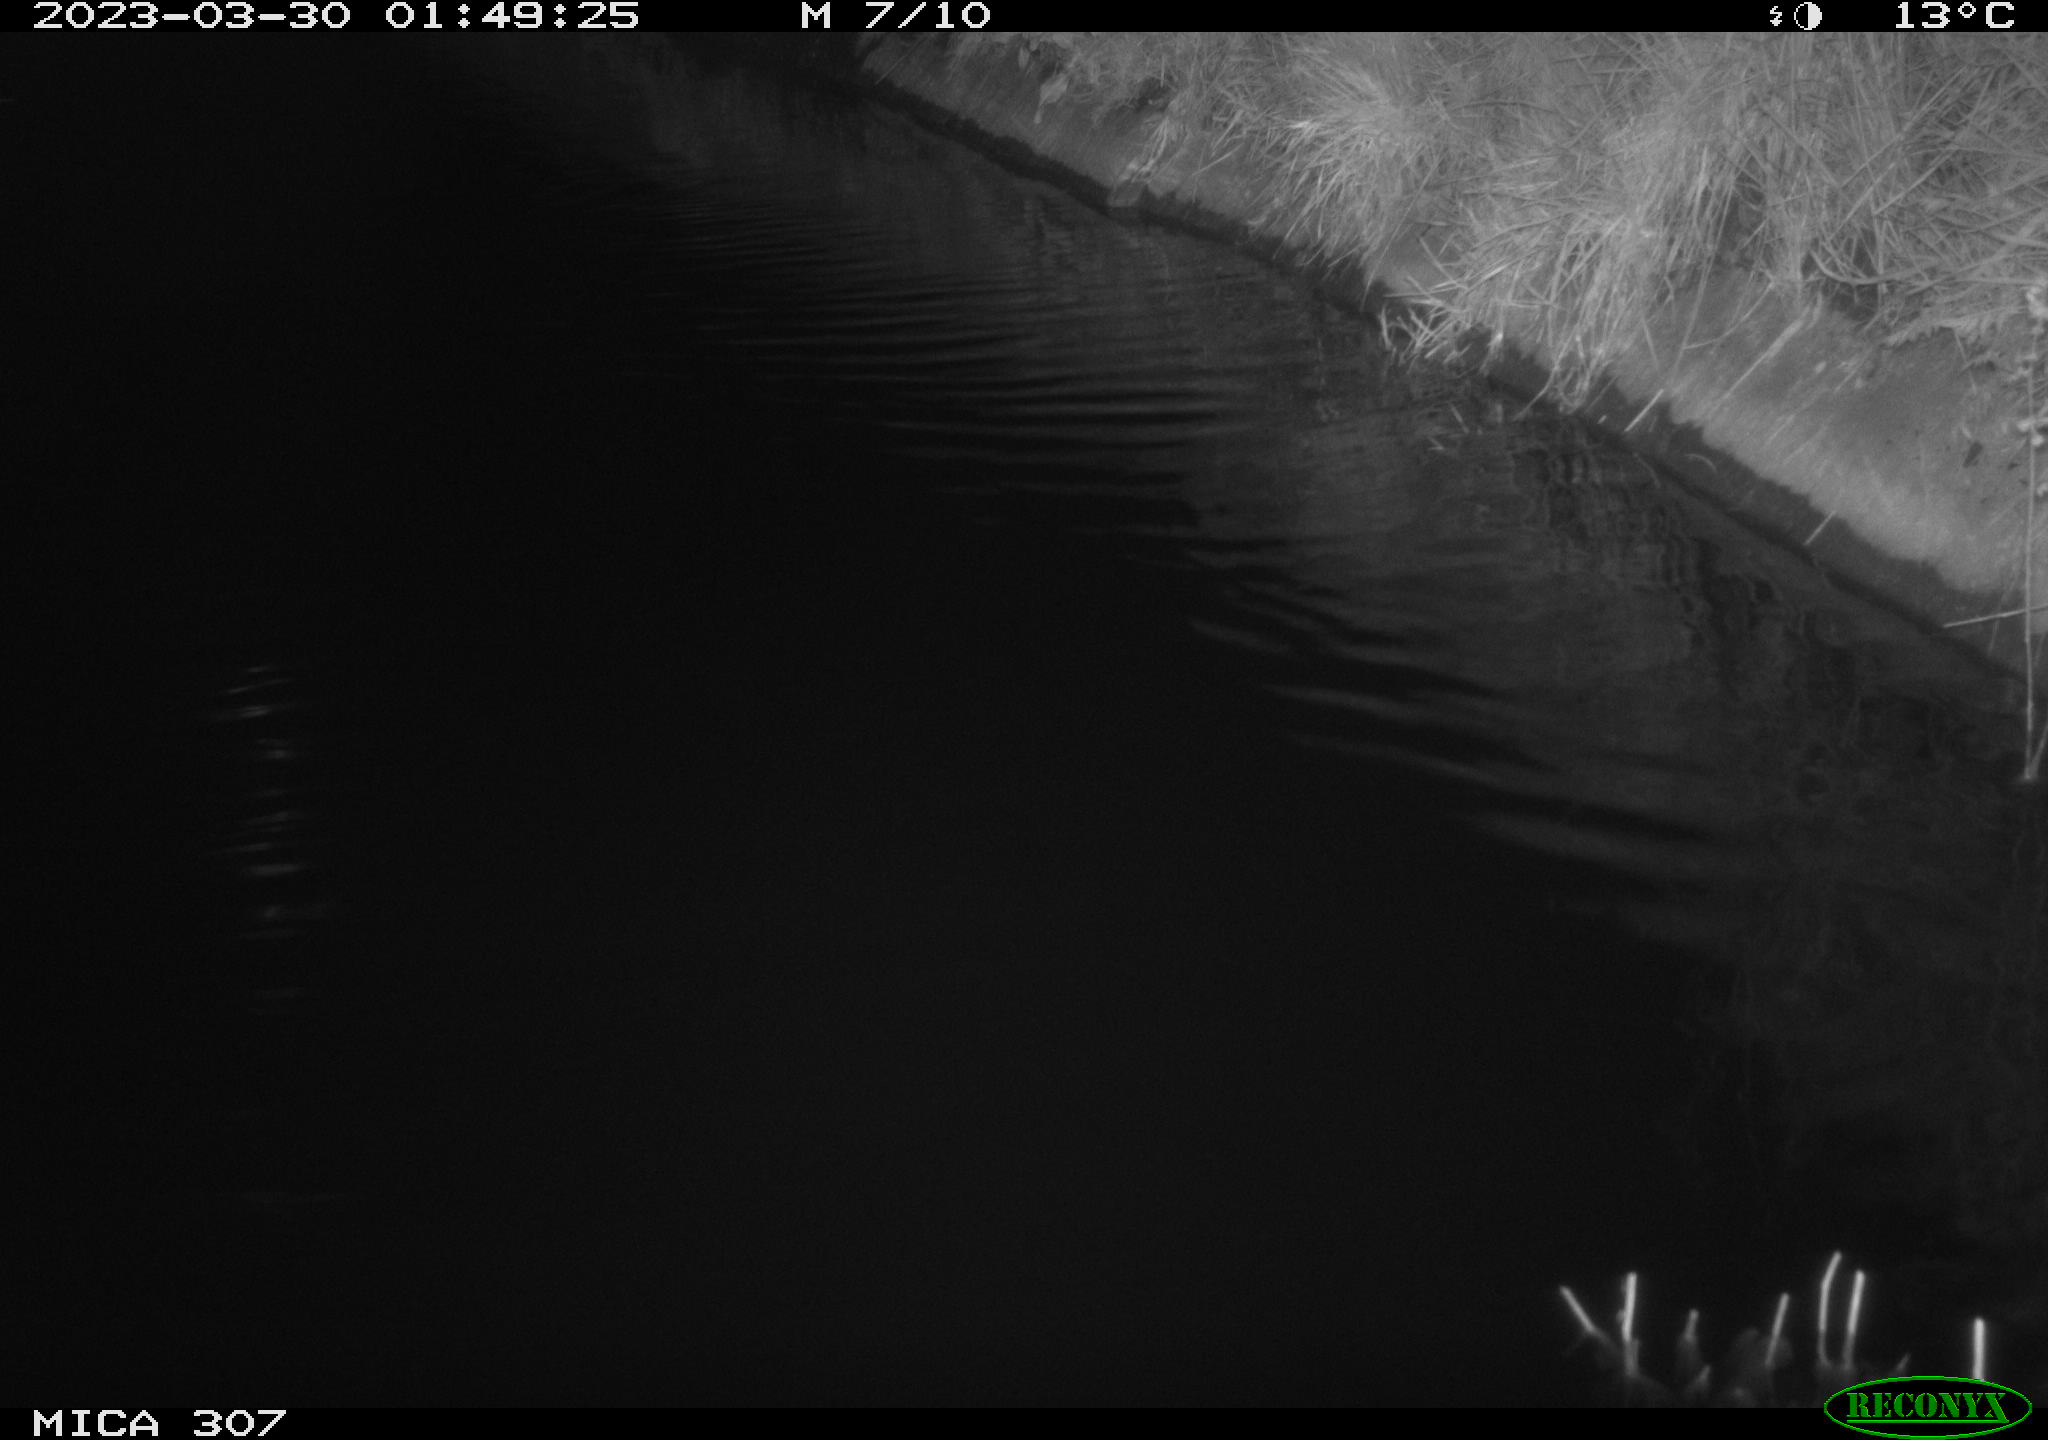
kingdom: Animalia
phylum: Chordata
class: Aves
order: Anseriformes
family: Anatidae
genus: Anas
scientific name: Anas
